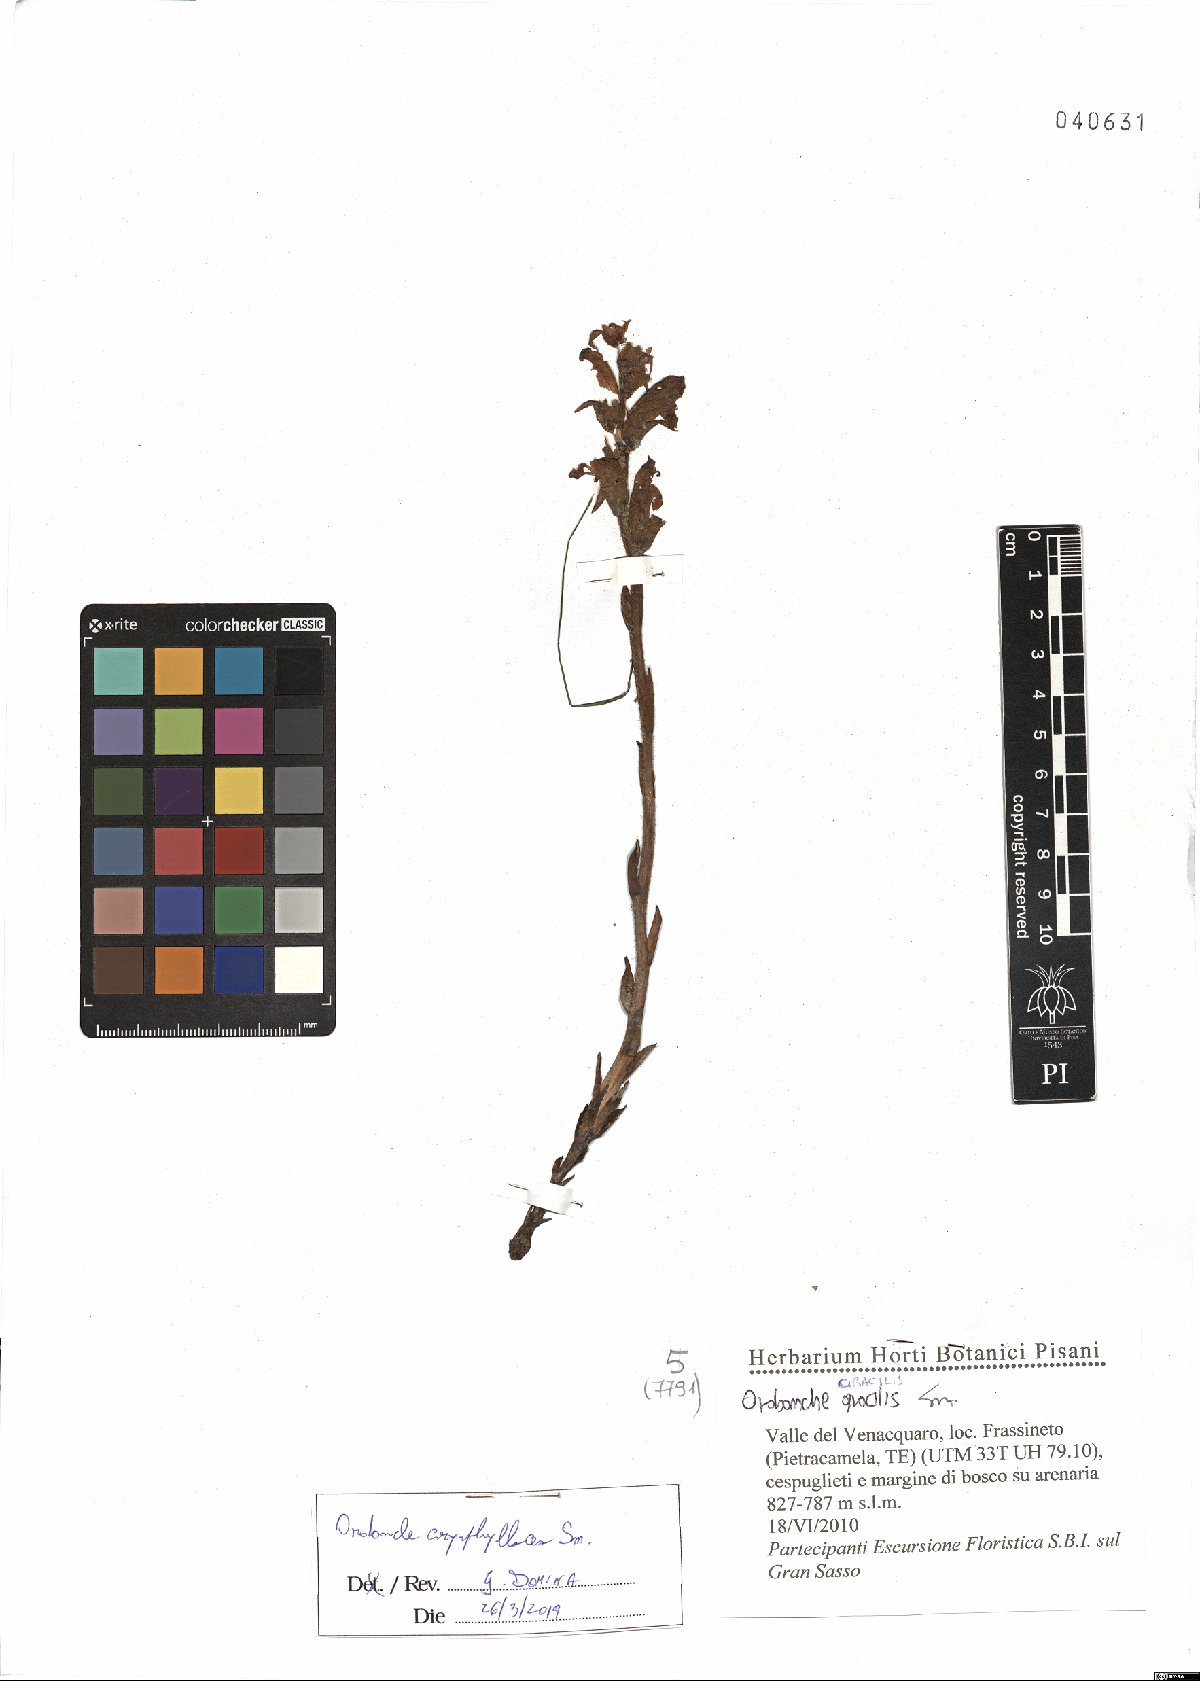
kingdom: Plantae
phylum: Tracheophyta
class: Magnoliopsida
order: Lamiales
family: Orobanchaceae
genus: Orobanche
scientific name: Orobanche caryophyllacea
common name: Bedstraw broomrape
